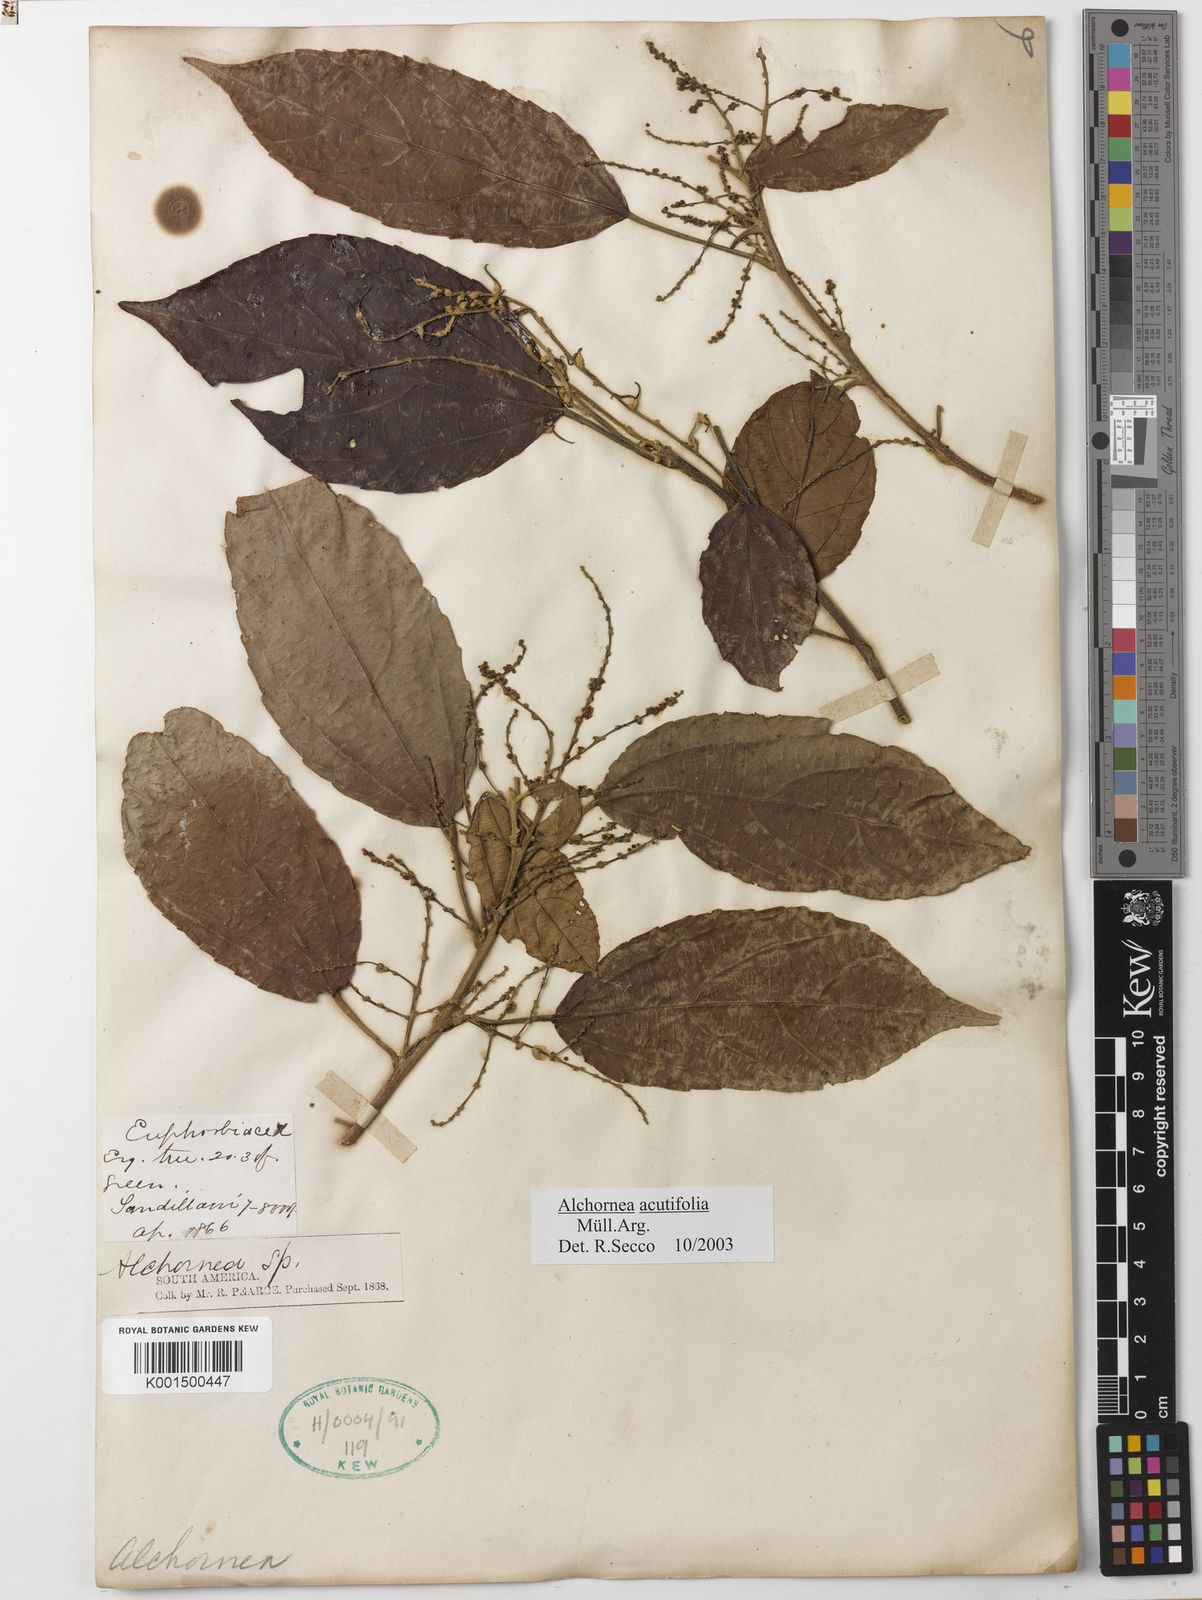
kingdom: Plantae
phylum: Tracheophyta
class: Magnoliopsida
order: Malpighiales
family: Euphorbiaceae
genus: Alchornea
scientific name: Alchornea acutifolia
